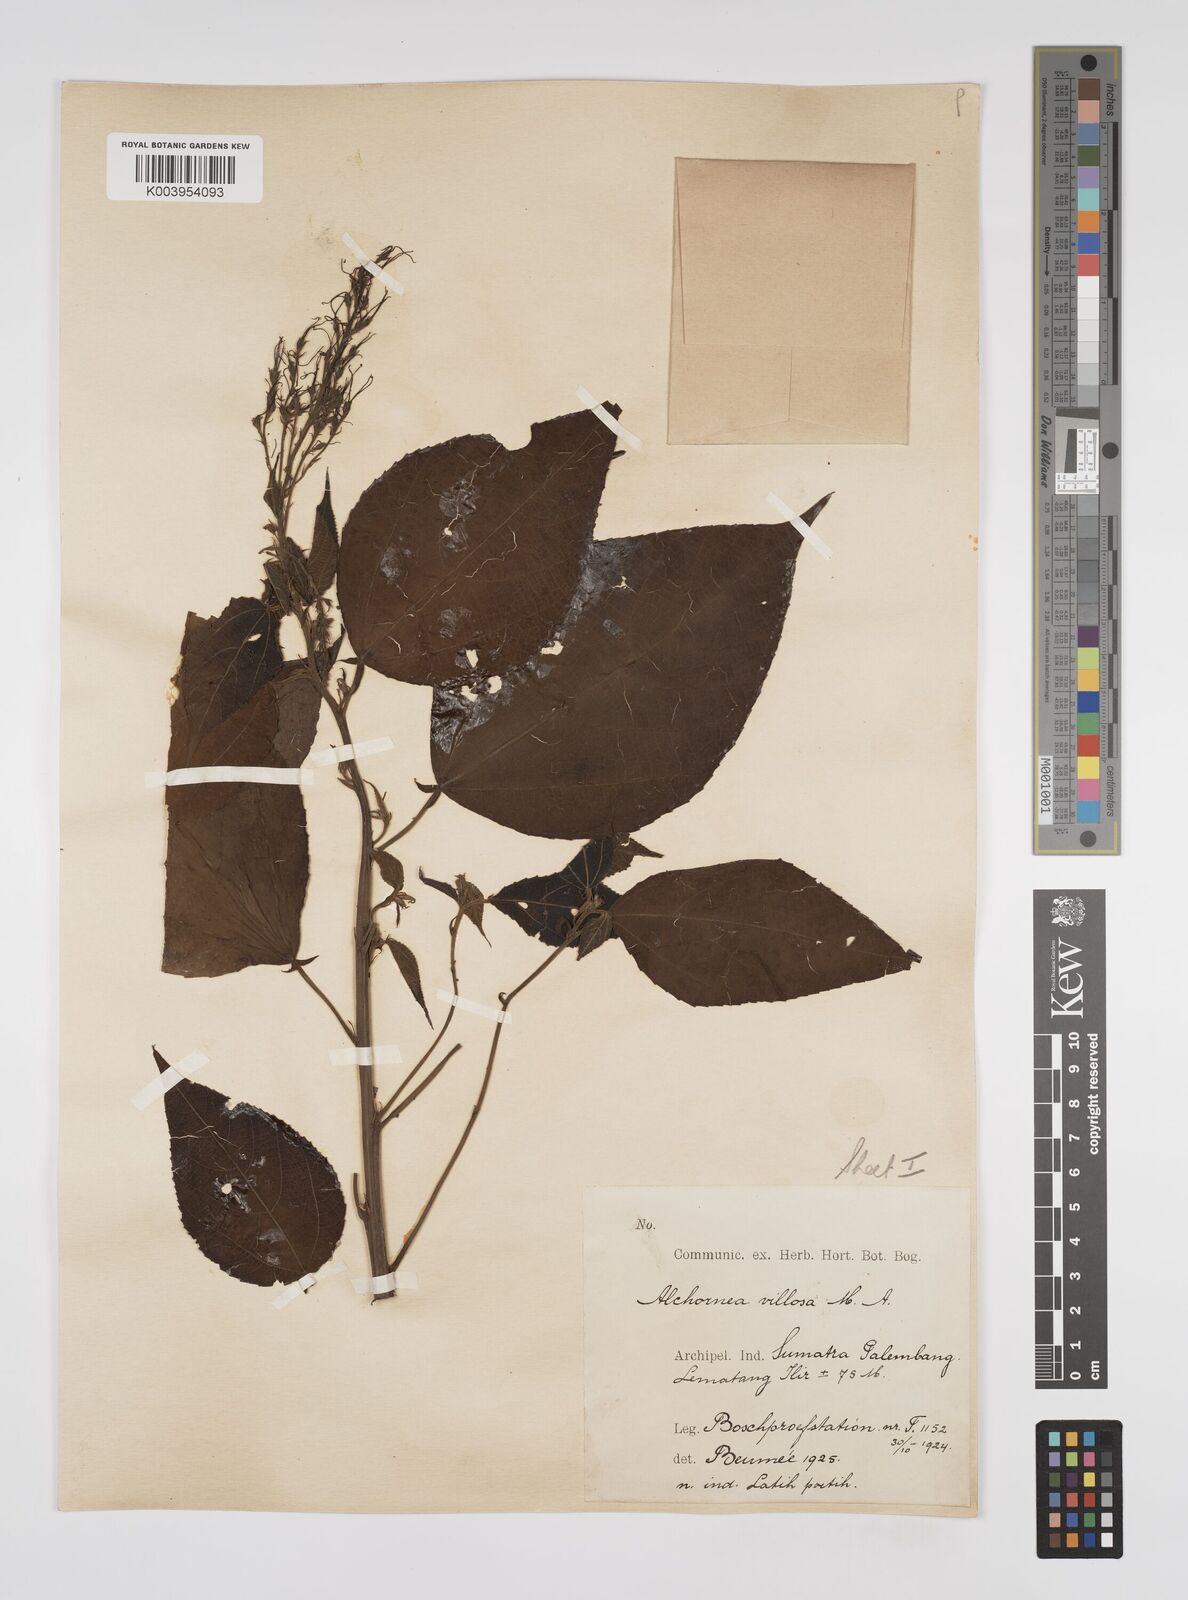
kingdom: Plantae
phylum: Tracheophyta
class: Magnoliopsida
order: Malpighiales
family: Euphorbiaceae
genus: Alchornea
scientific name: Alchornea tiliifolia
